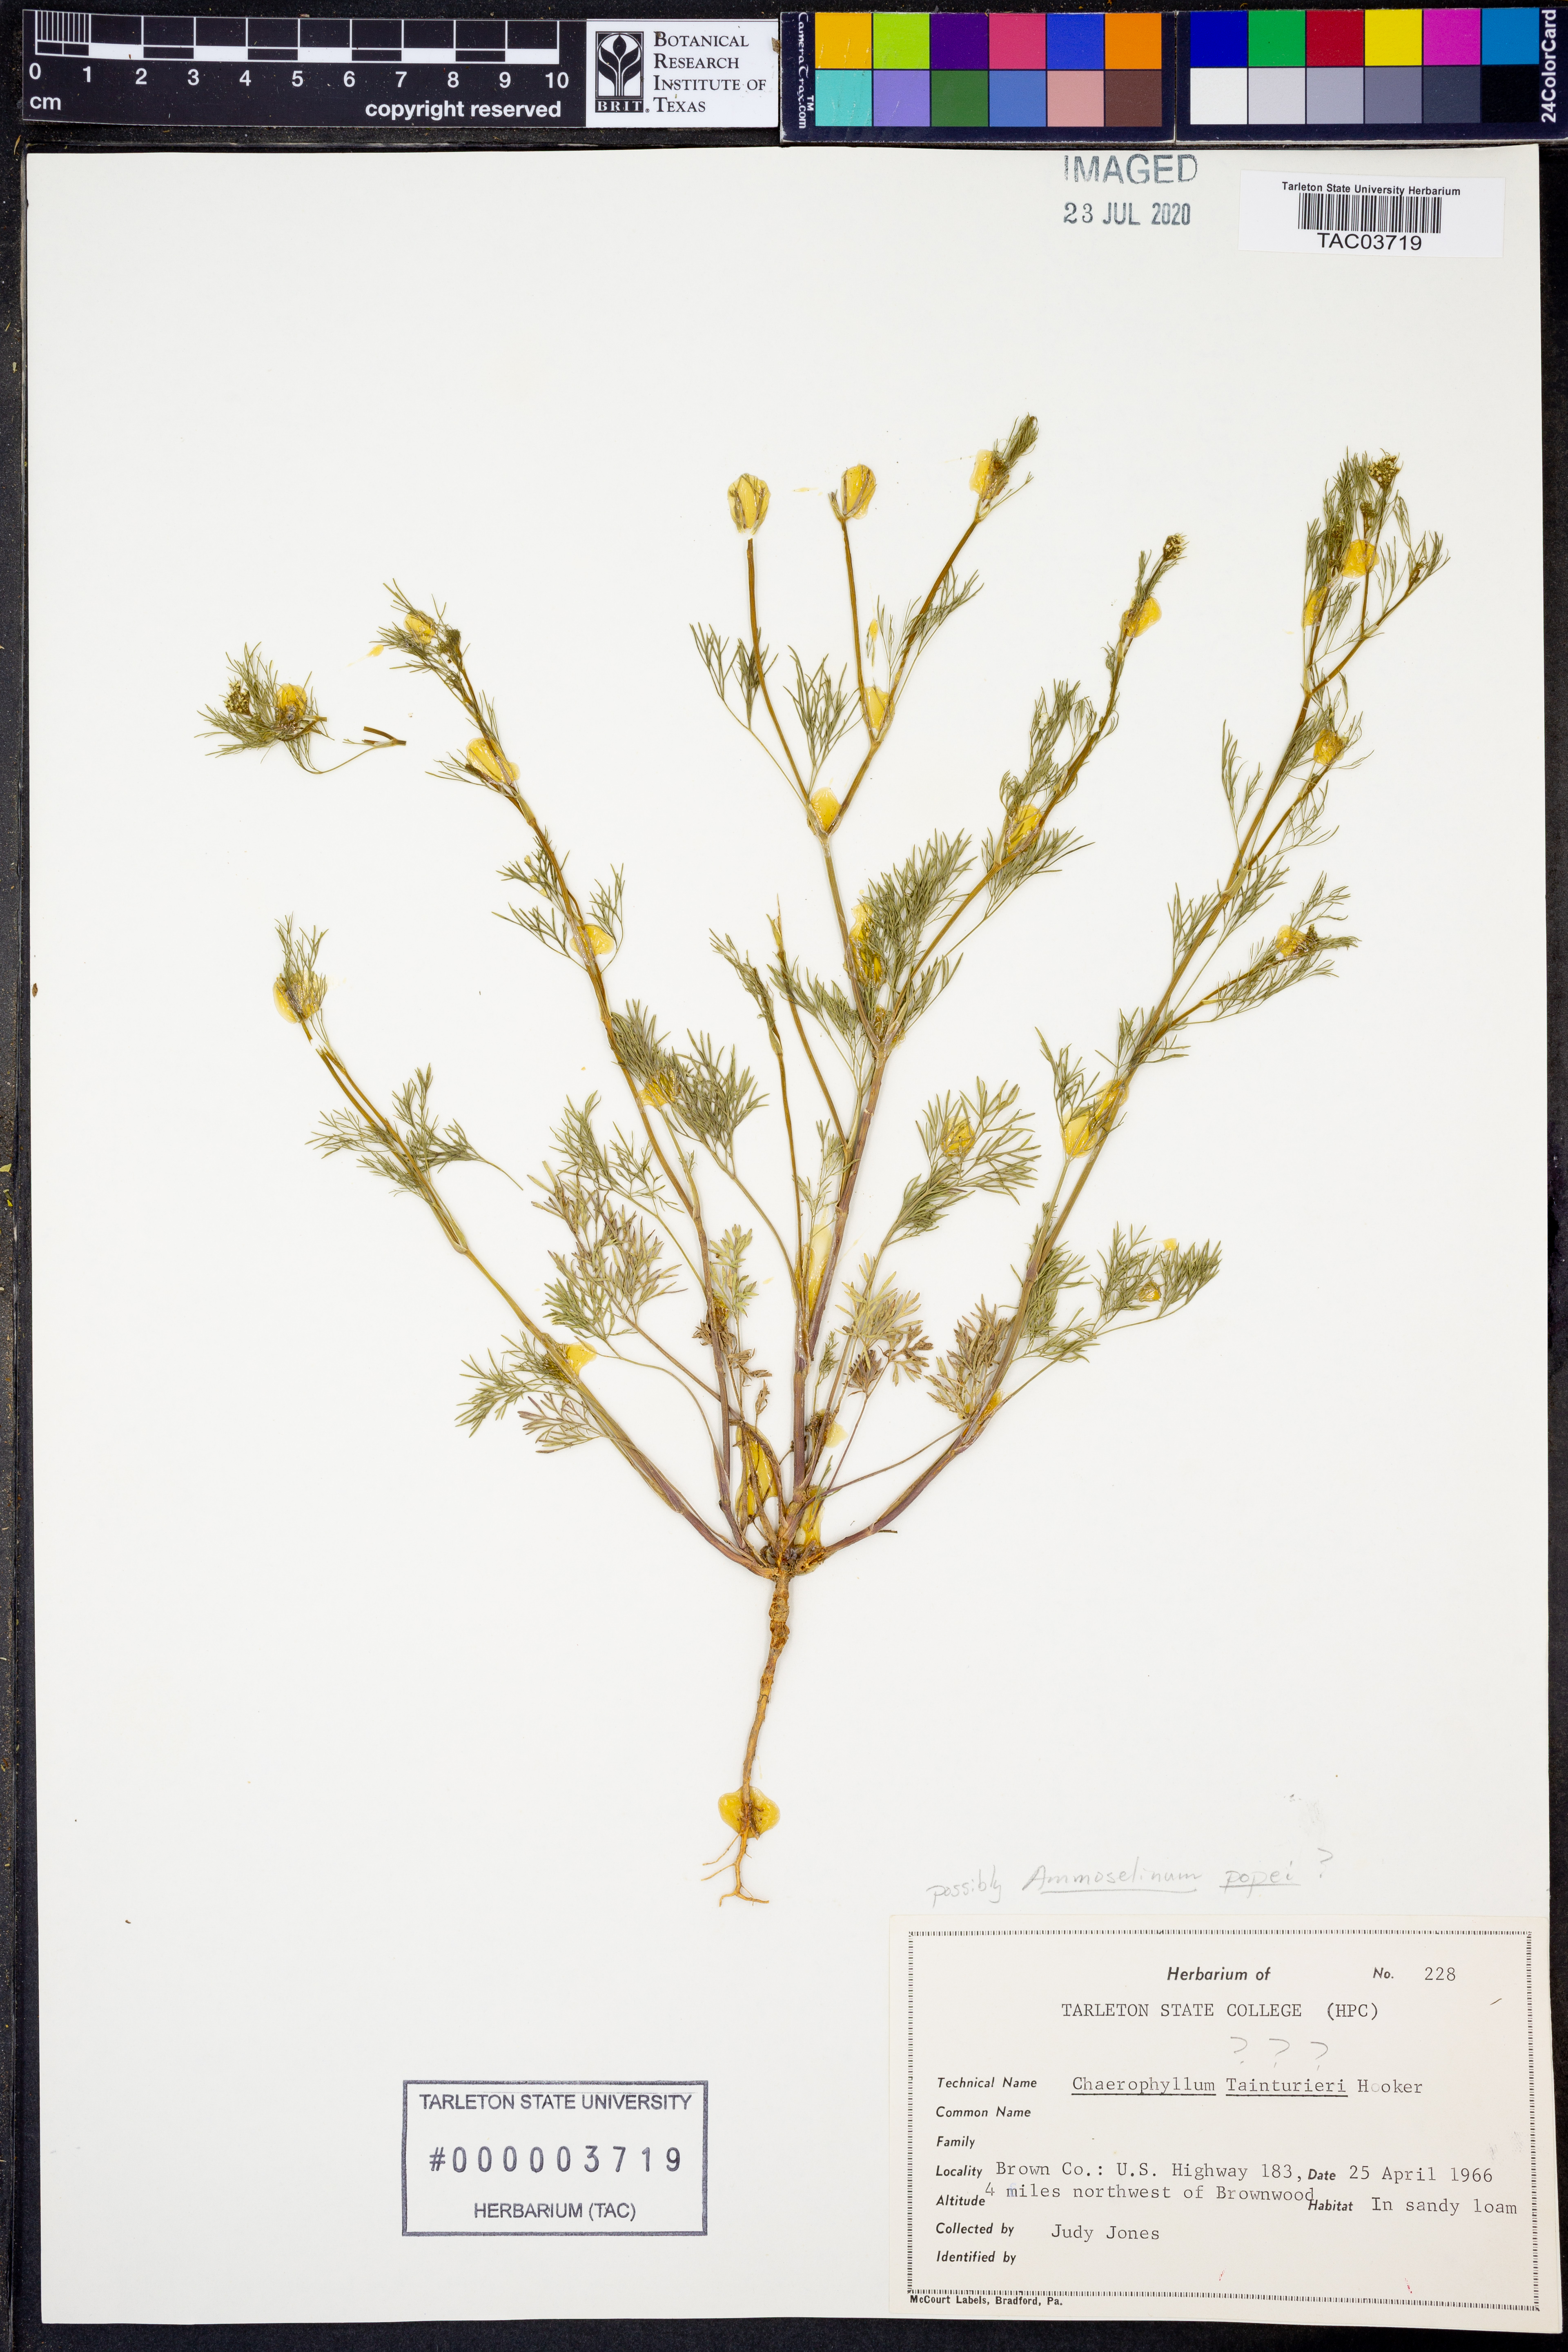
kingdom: Plantae
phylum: Tracheophyta
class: Magnoliopsida
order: Apiales
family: Apiaceae
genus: Ammoselinum
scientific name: Ammoselinum popei
